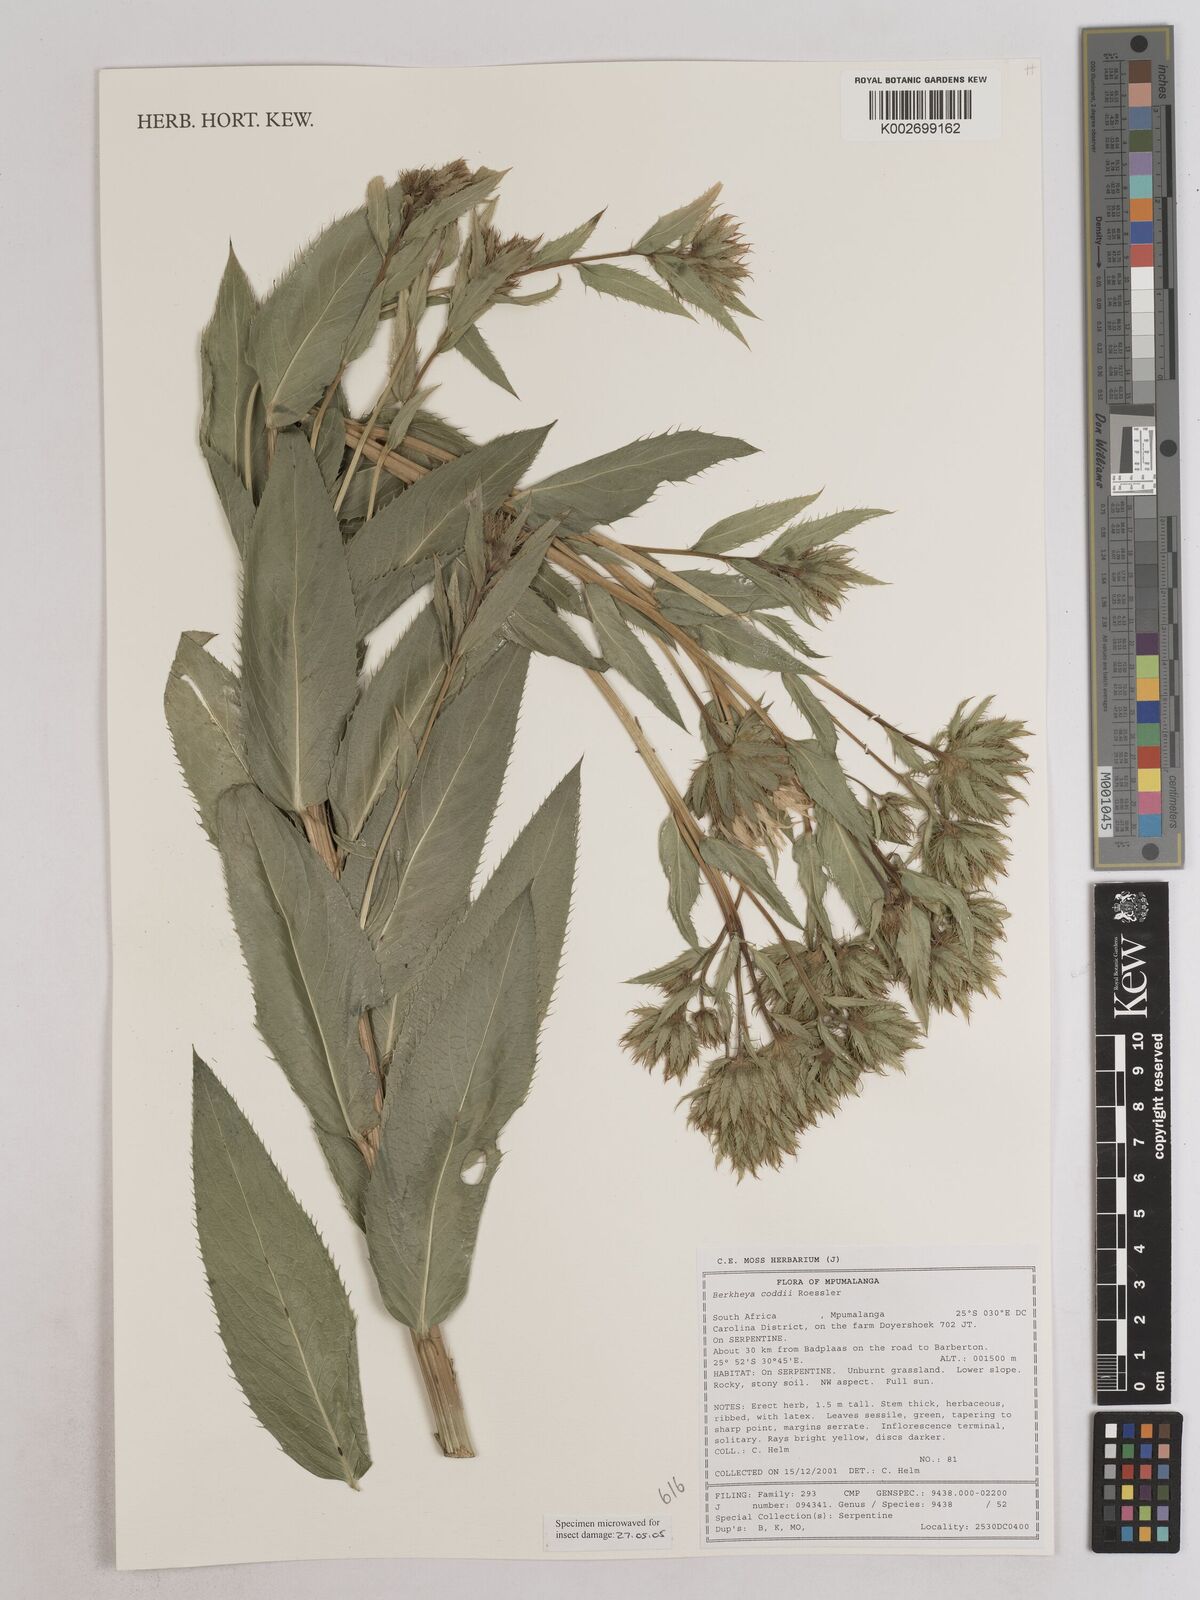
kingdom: Plantae
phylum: Tracheophyta
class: Magnoliopsida
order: Asterales
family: Asteraceae
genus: Berkheya
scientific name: Berkheya coddii
